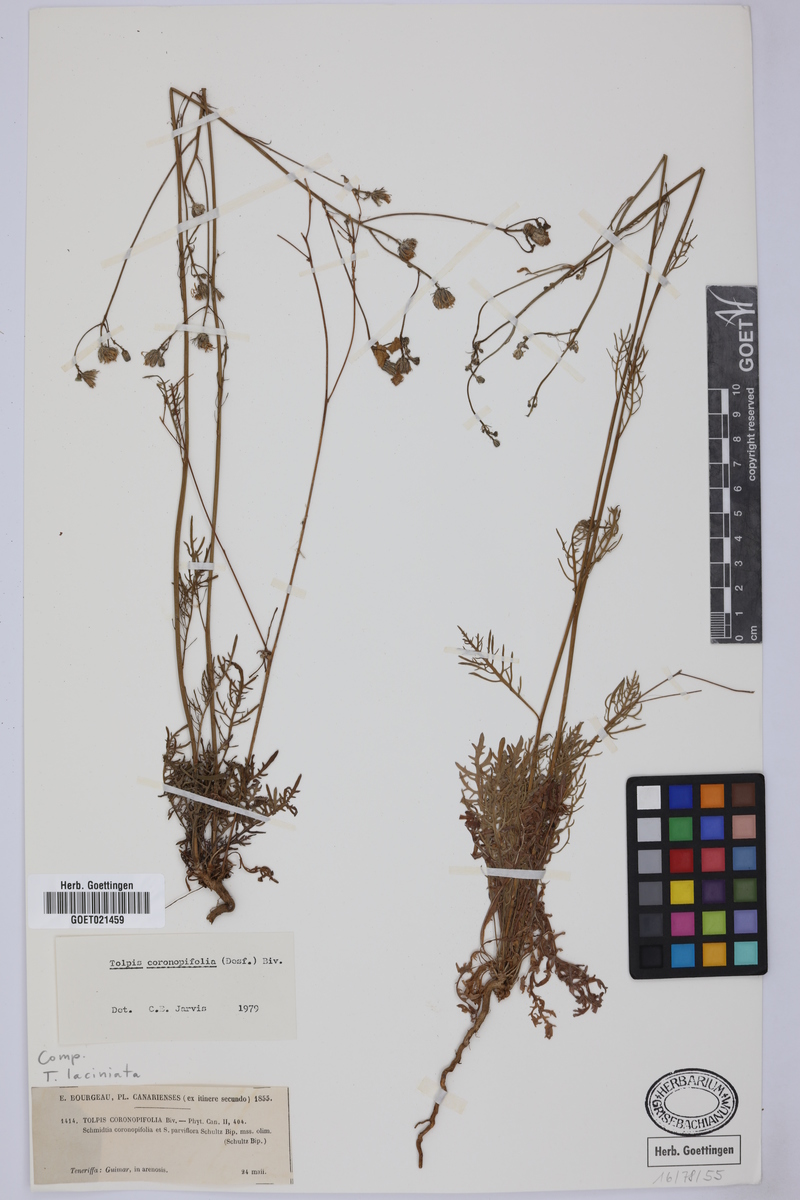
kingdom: Plantae
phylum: Tracheophyta
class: Magnoliopsida
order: Asterales
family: Asteraceae
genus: Tolpis
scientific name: Tolpis coronopifolia
